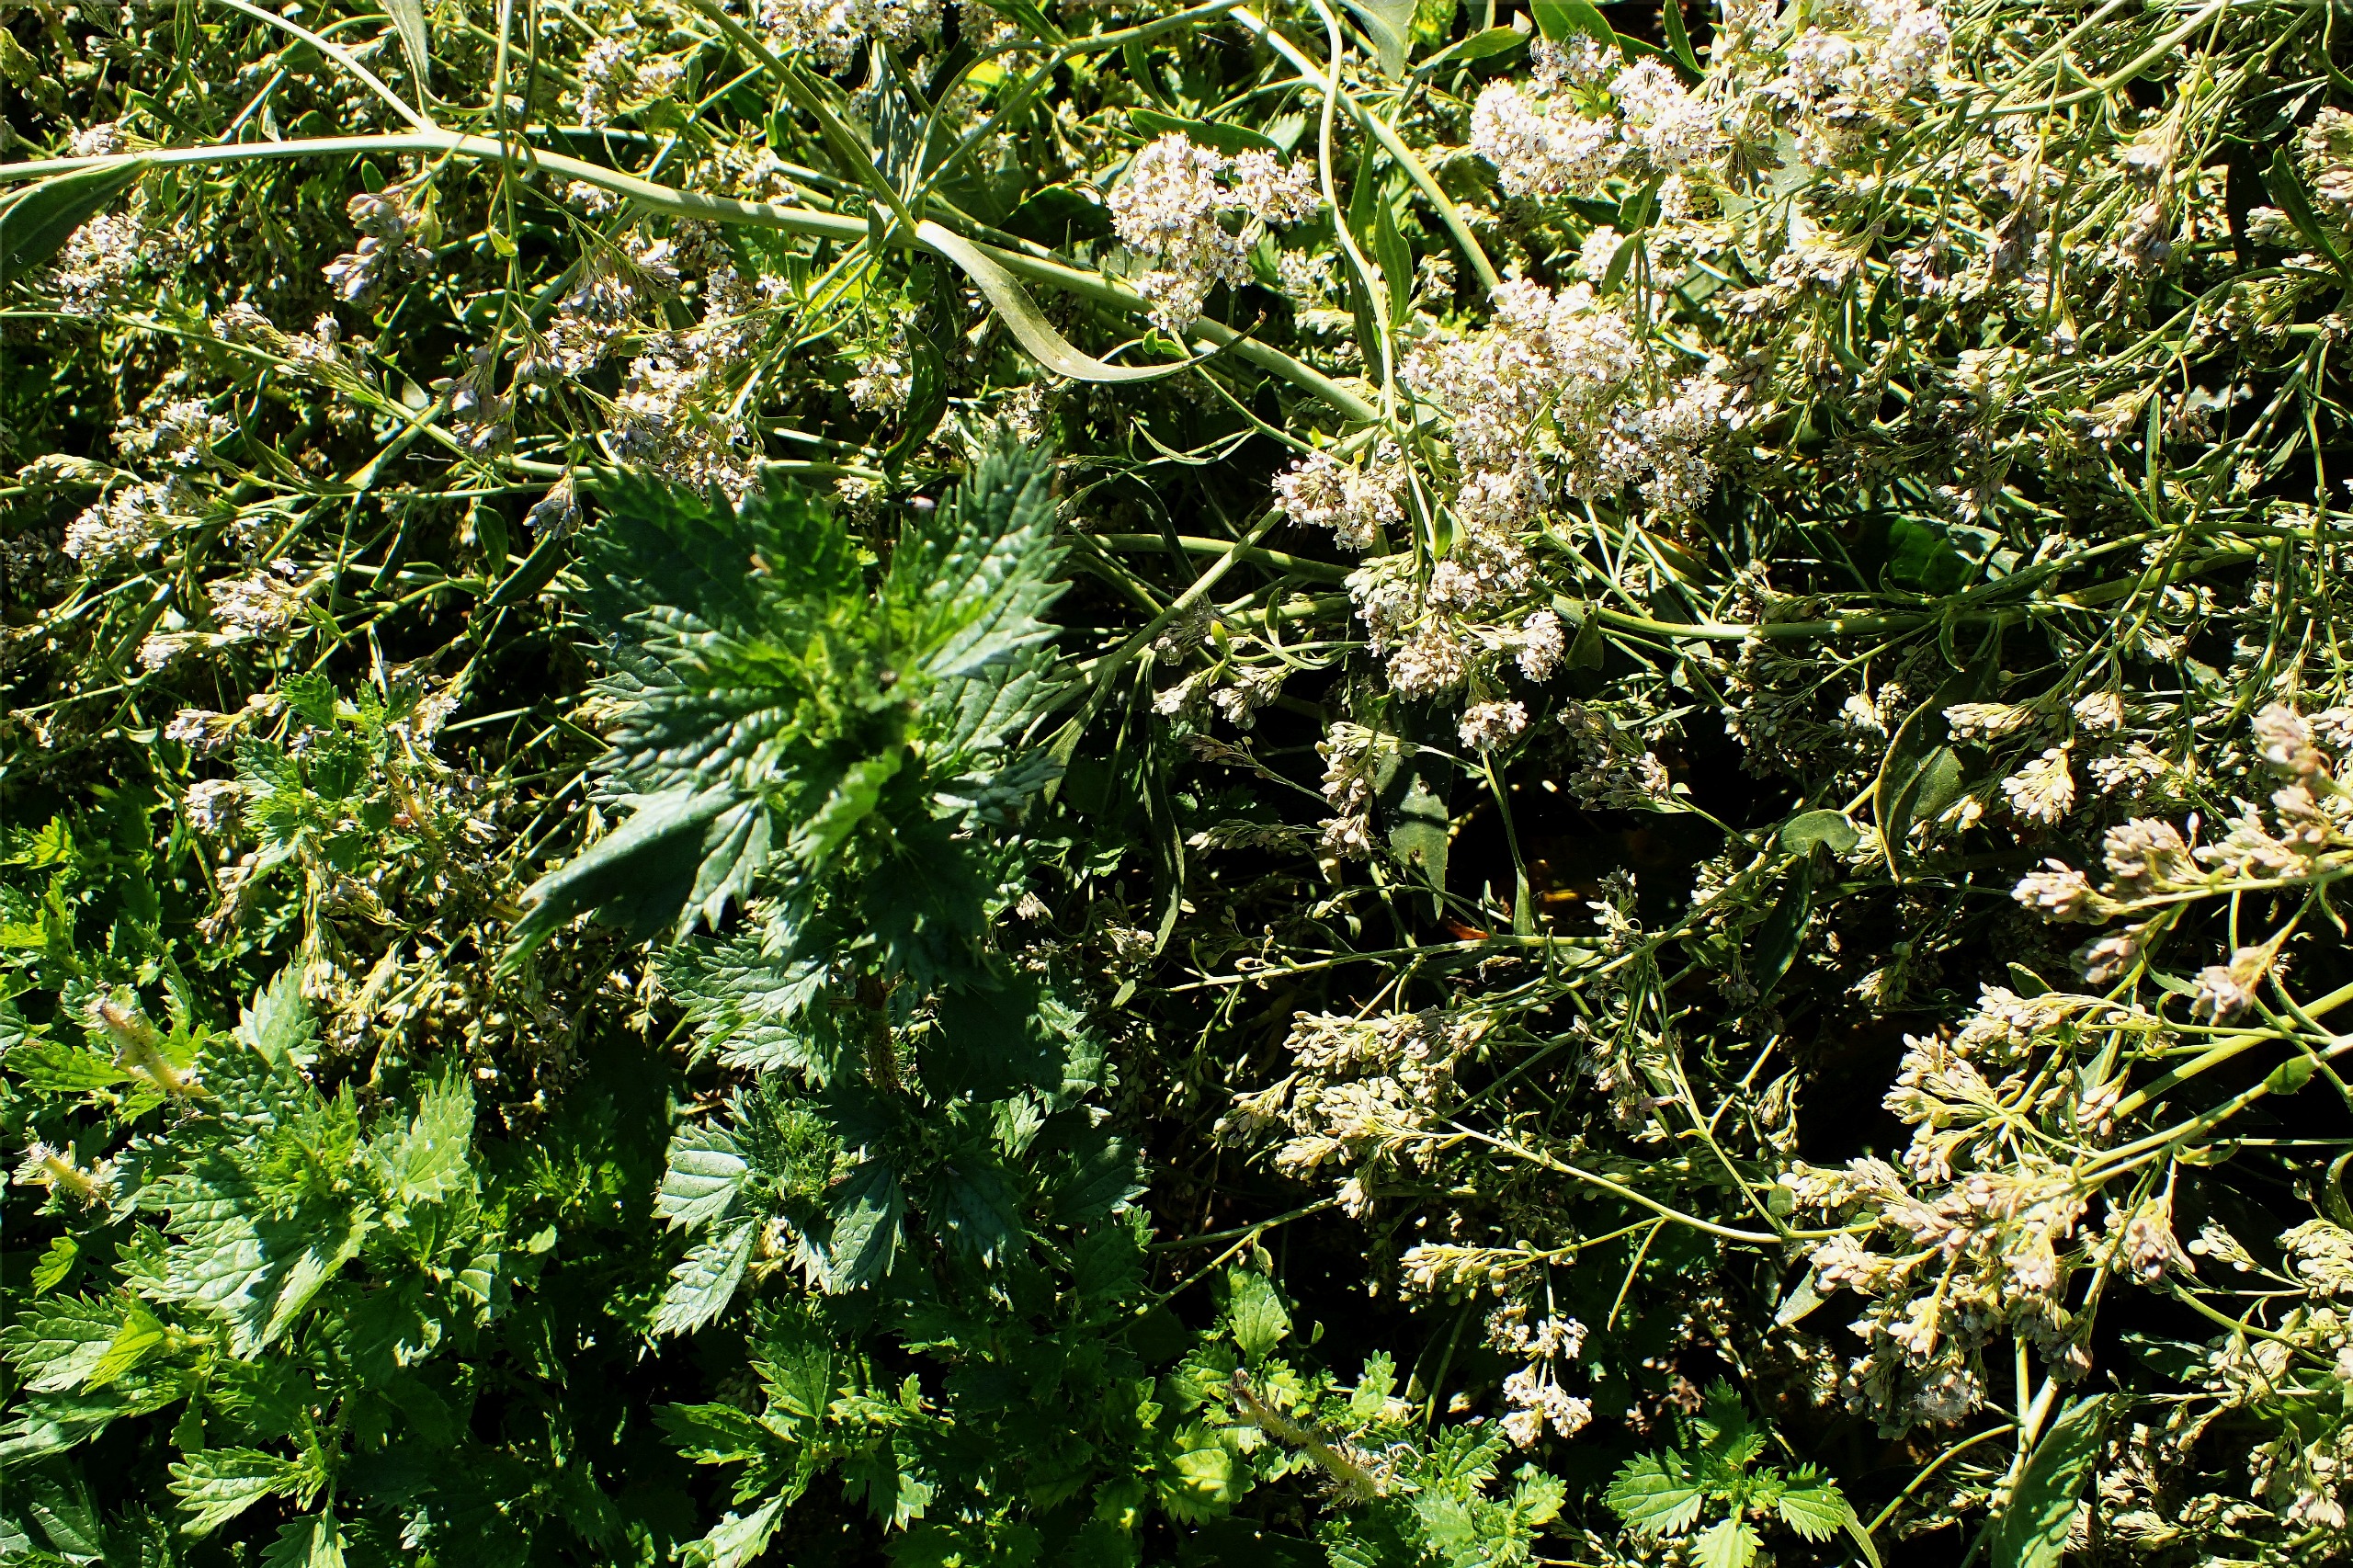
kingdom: Plantae
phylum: Tracheophyta
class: Magnoliopsida
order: Rosales
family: Urticaceae
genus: Urtica
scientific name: Urtica urens
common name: Liden nælde
